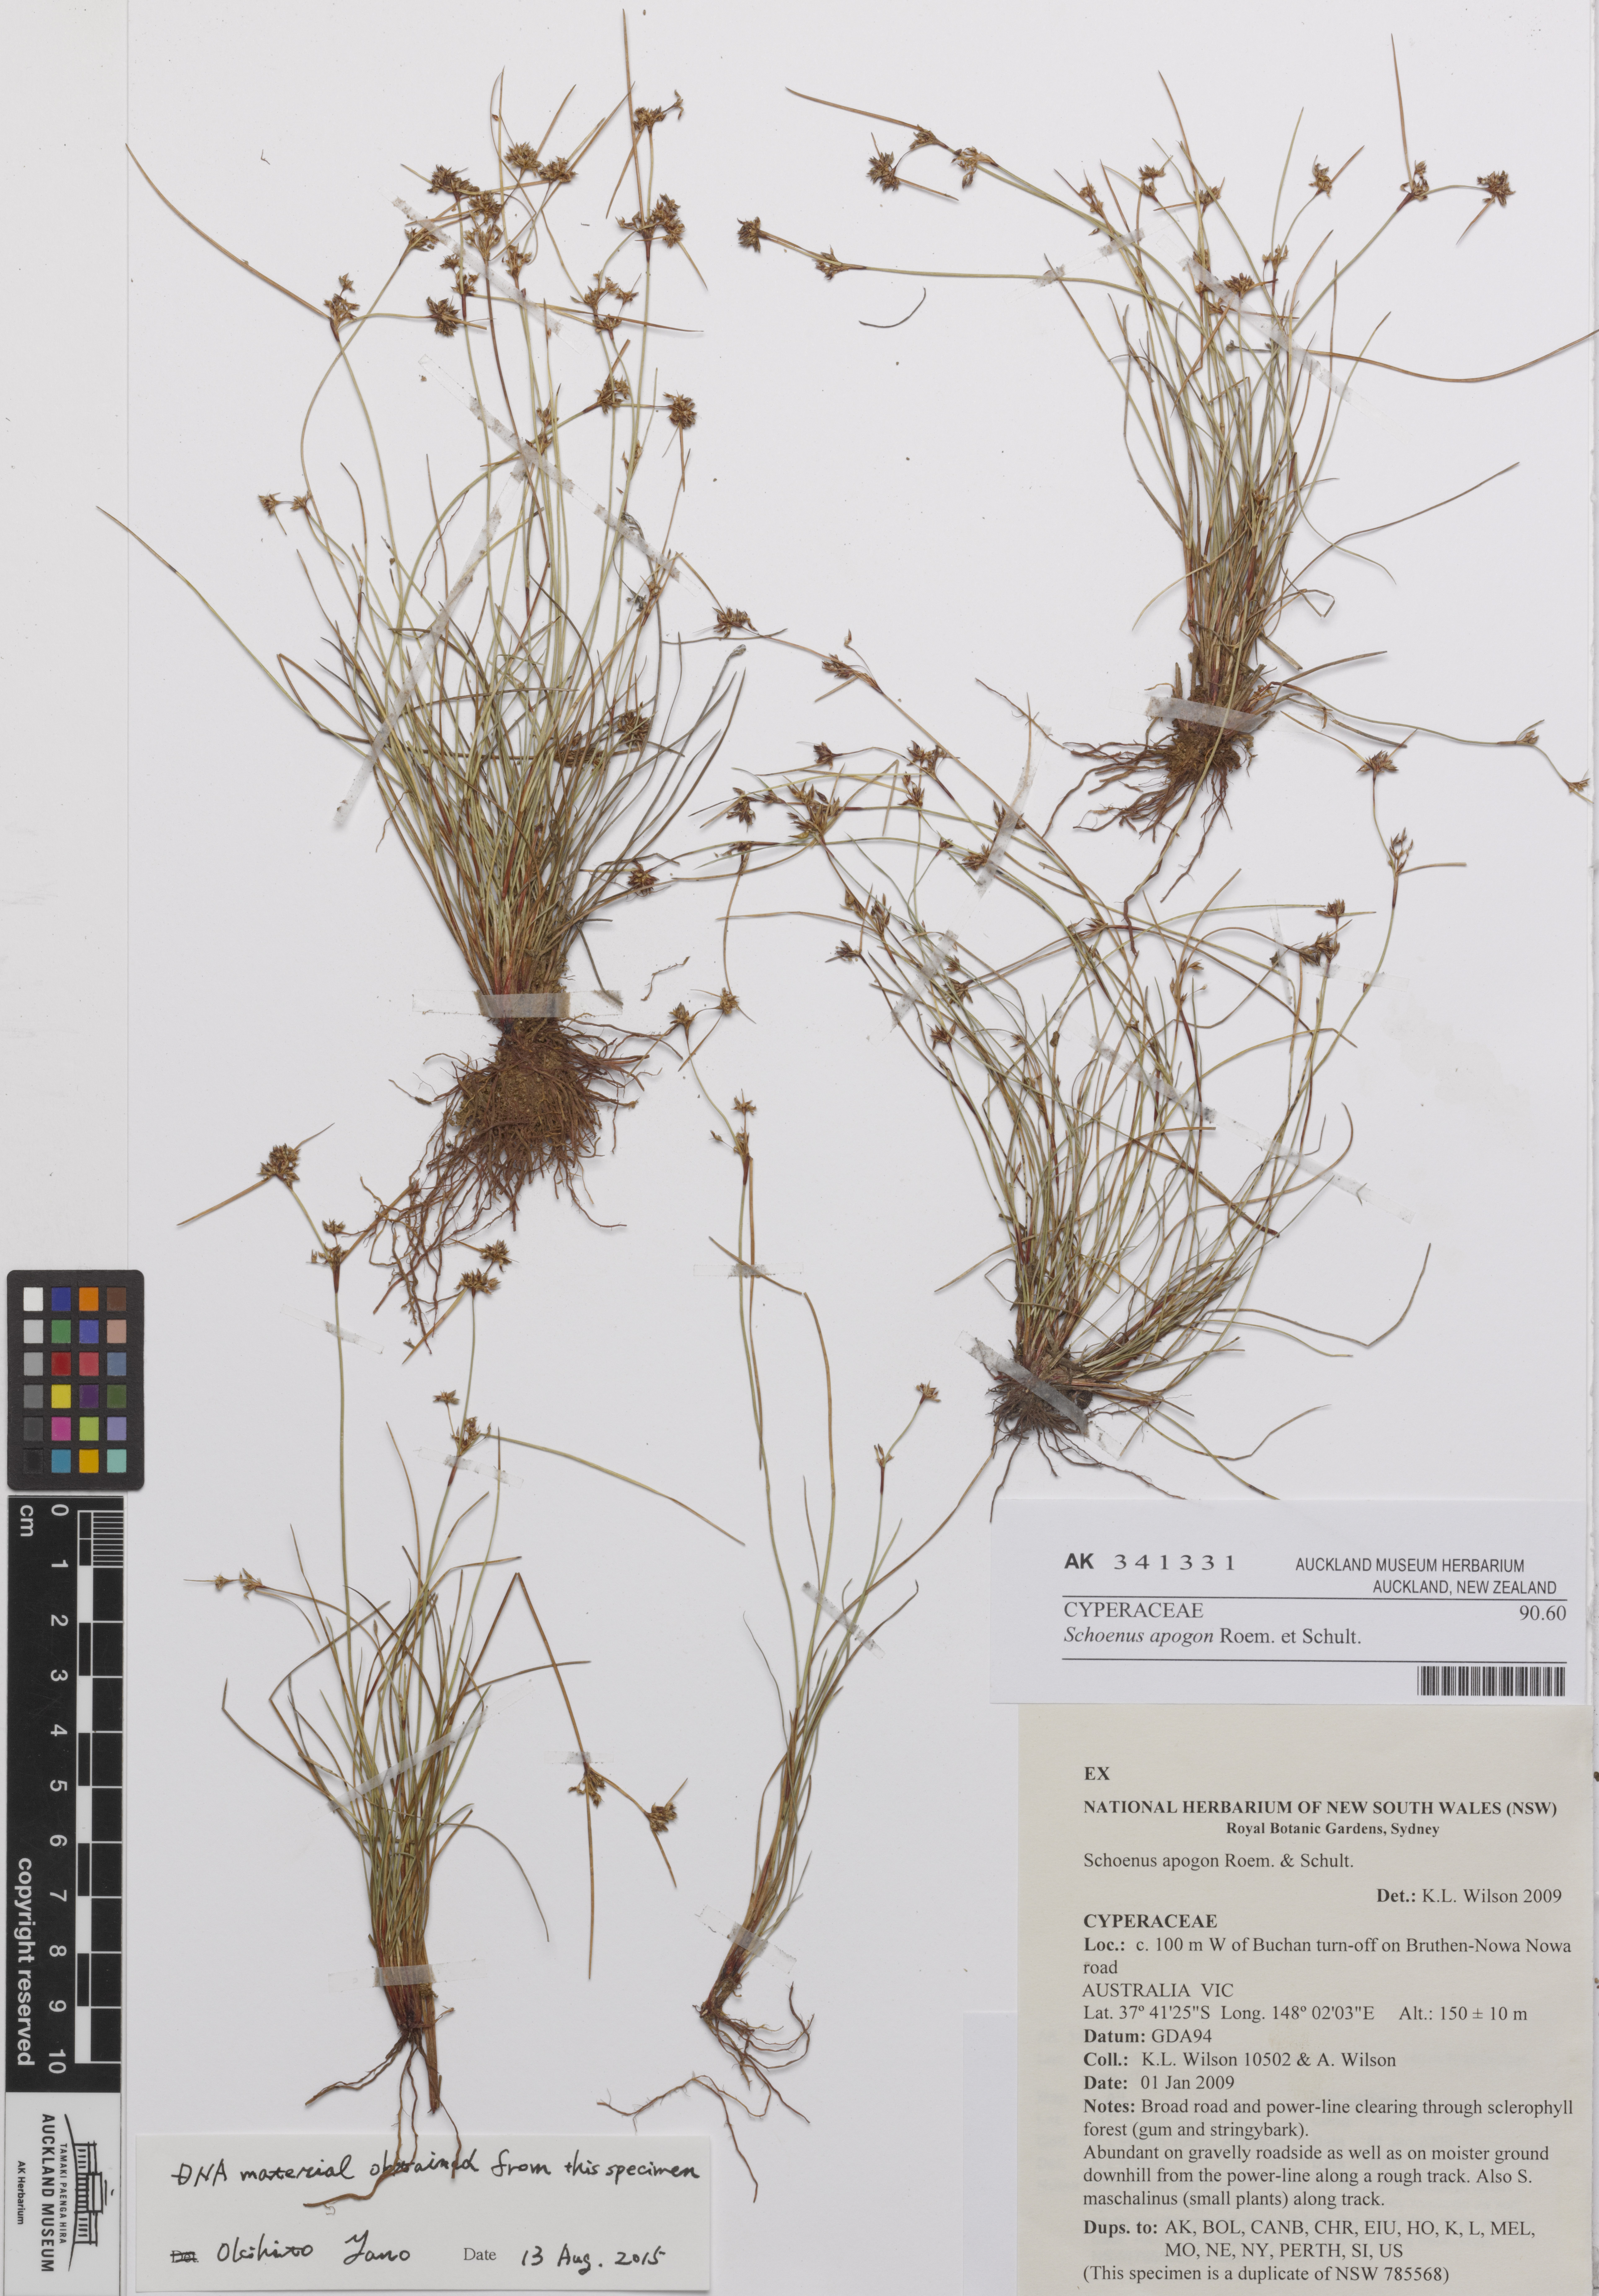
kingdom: Plantae
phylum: Tracheophyta
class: Liliopsida
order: Poales
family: Cyperaceae
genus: Schoenus
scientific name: Schoenus apogon
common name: Smooth bogrush
